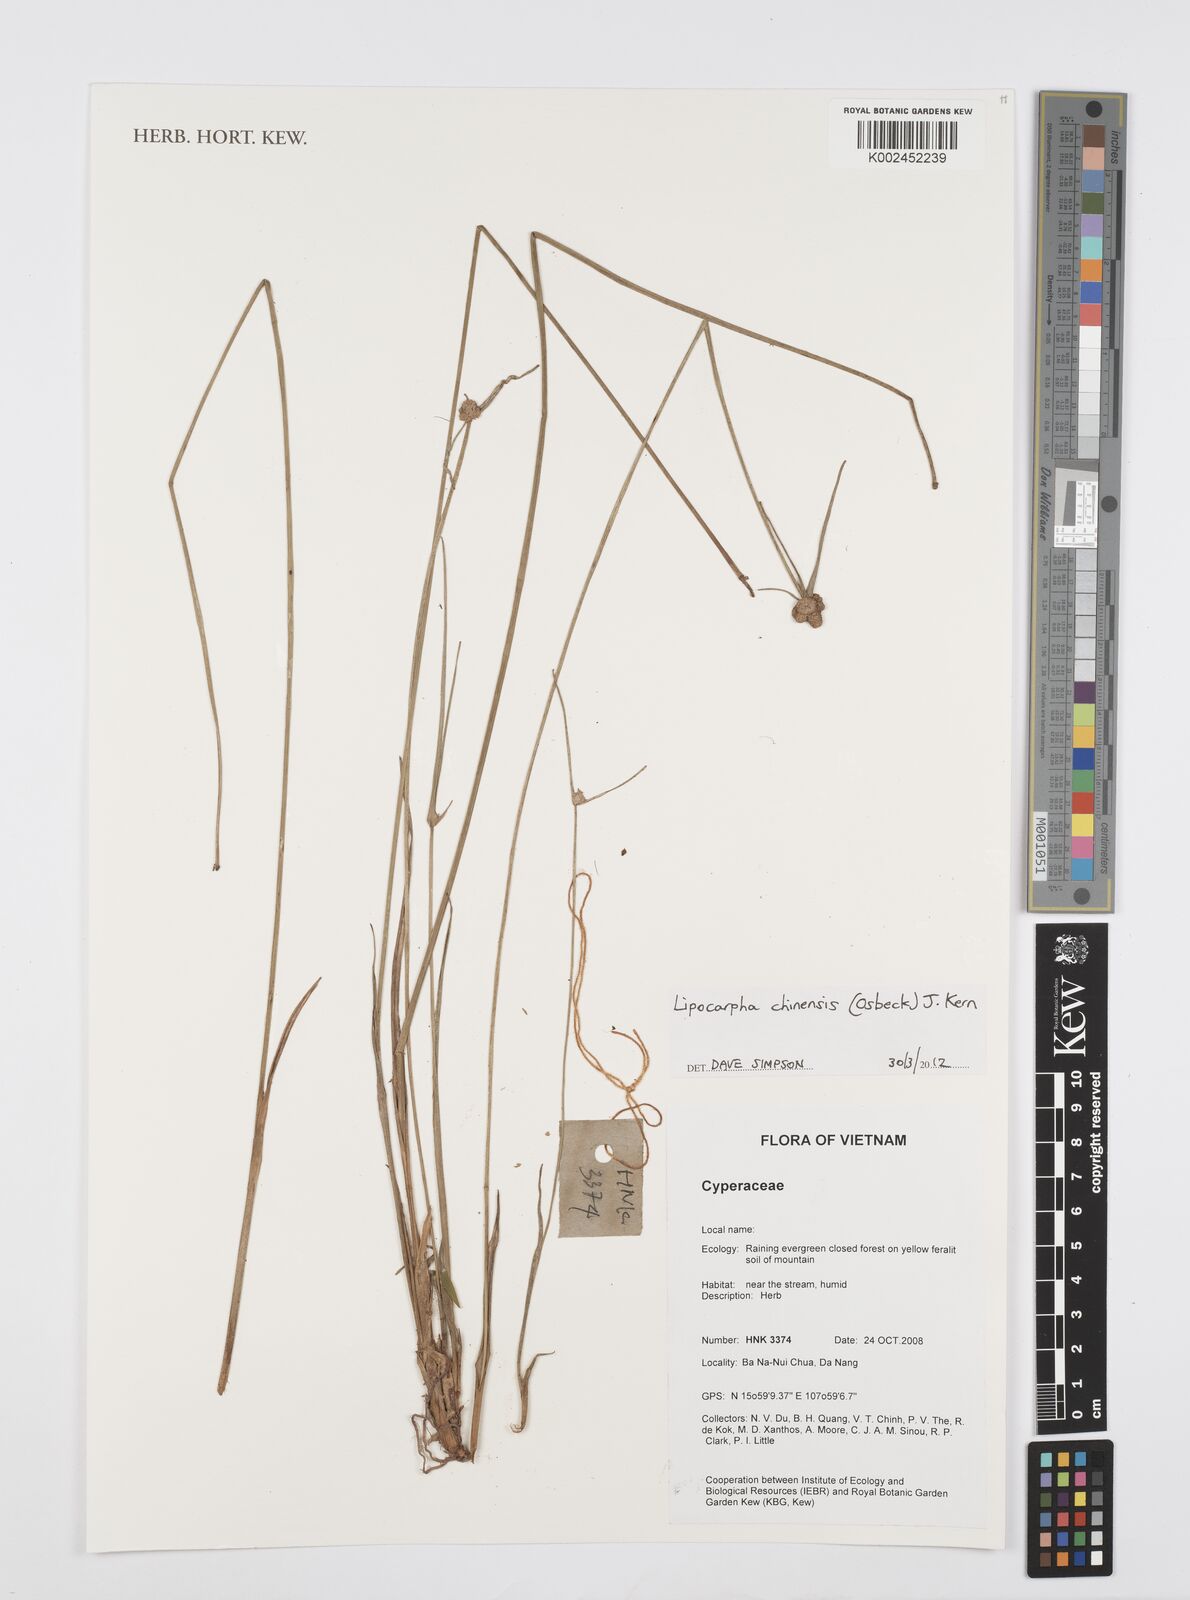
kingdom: Plantae
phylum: Tracheophyta
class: Liliopsida
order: Poales
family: Cyperaceae
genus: Cyperus
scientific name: Cyperus albescens
